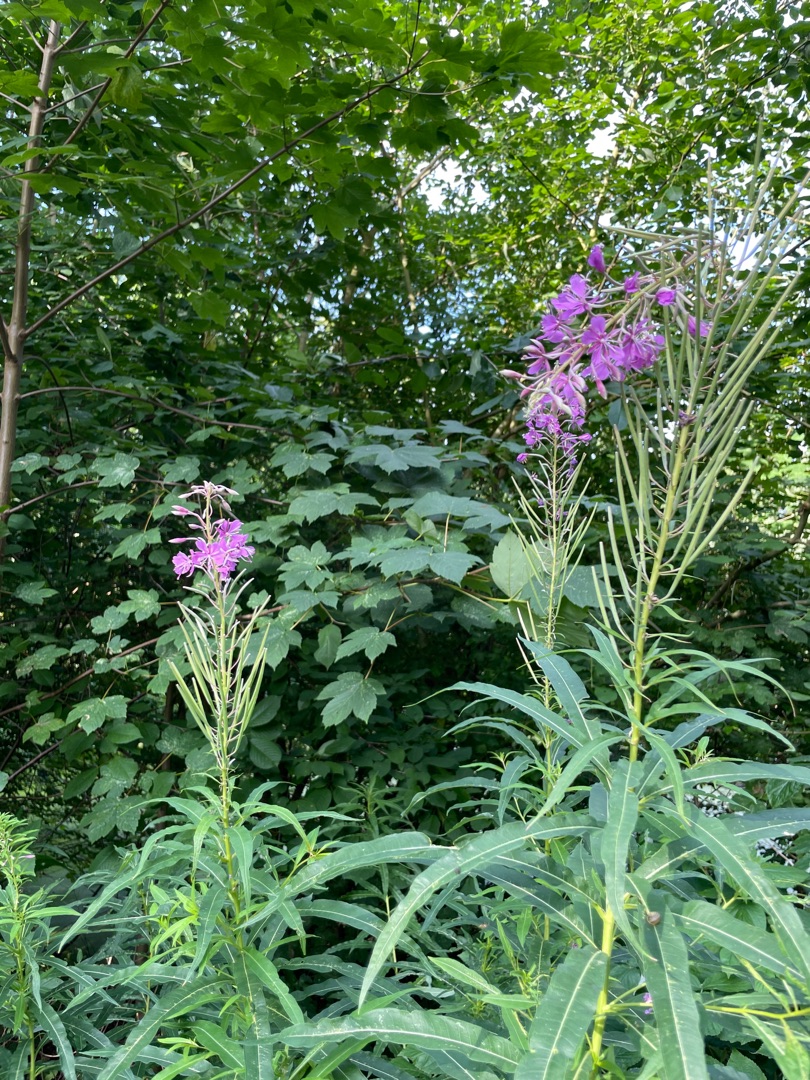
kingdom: Plantae
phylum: Tracheophyta
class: Magnoliopsida
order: Myrtales
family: Onagraceae
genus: Chamaenerion
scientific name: Chamaenerion angustifolium
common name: Gederams
